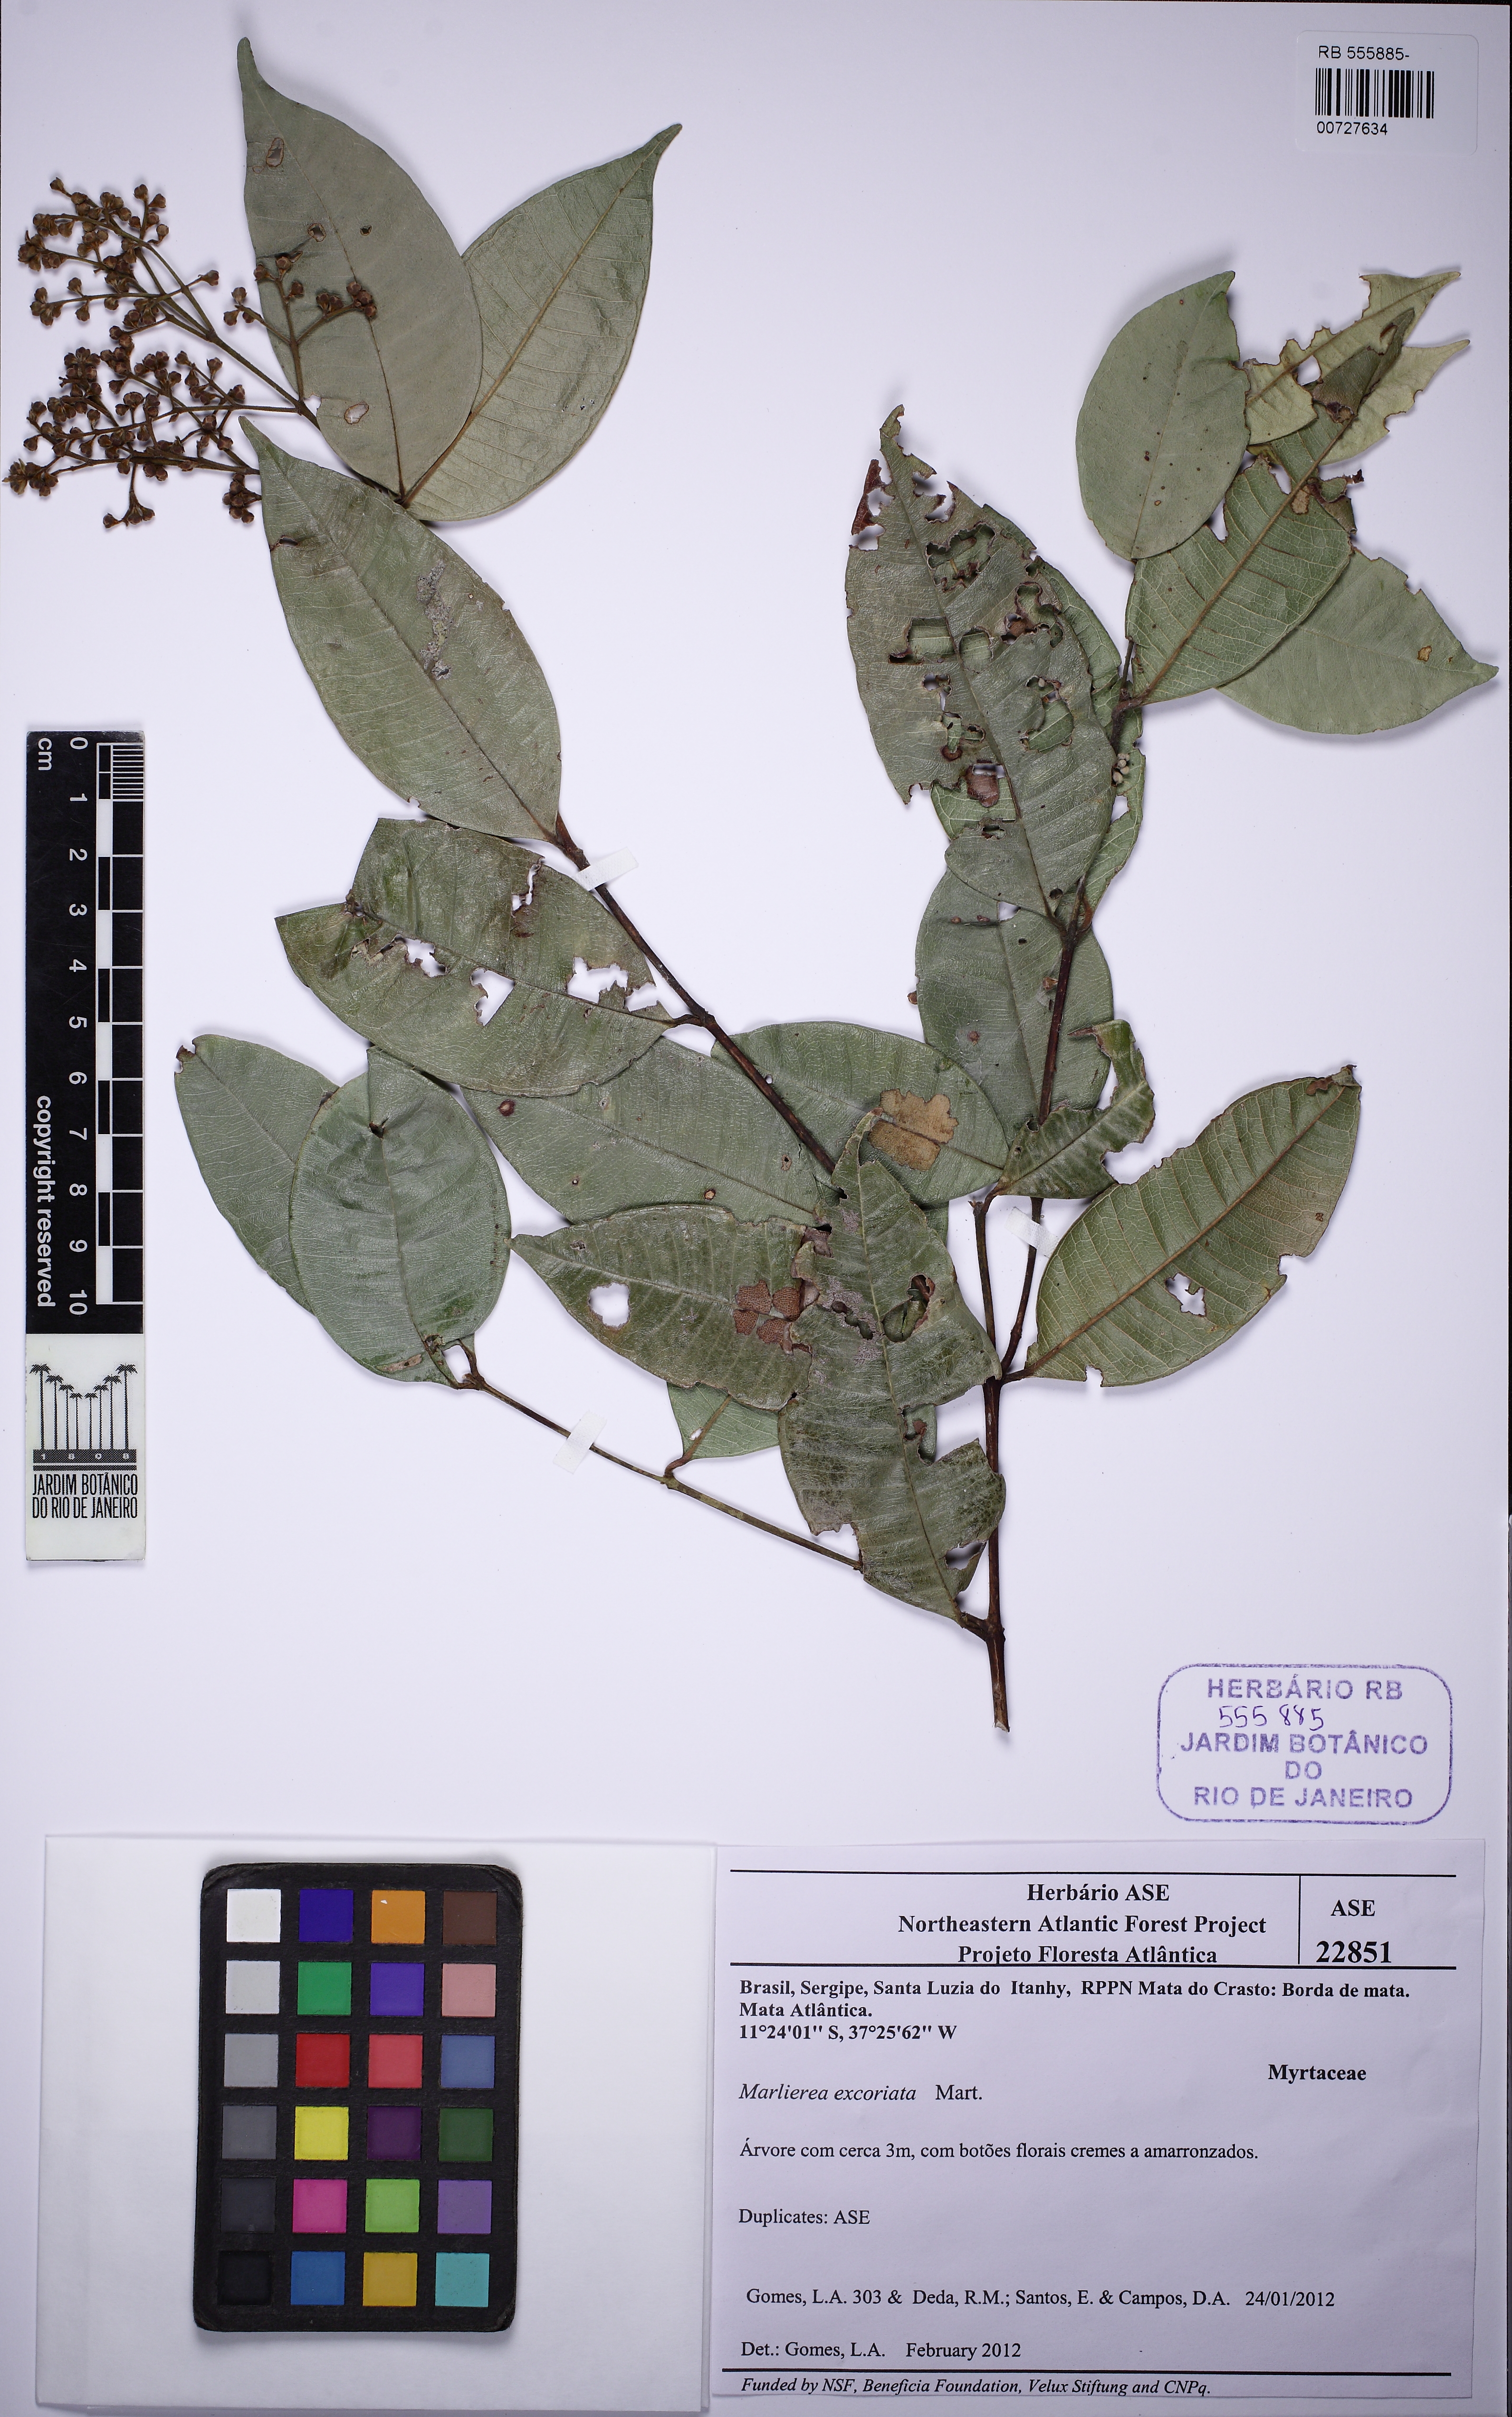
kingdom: Plantae
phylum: Tracheophyta
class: Magnoliopsida
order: Myrtales
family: Myrtaceae
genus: Myrcia
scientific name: Myrcia splendens
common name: Surinam cherry
